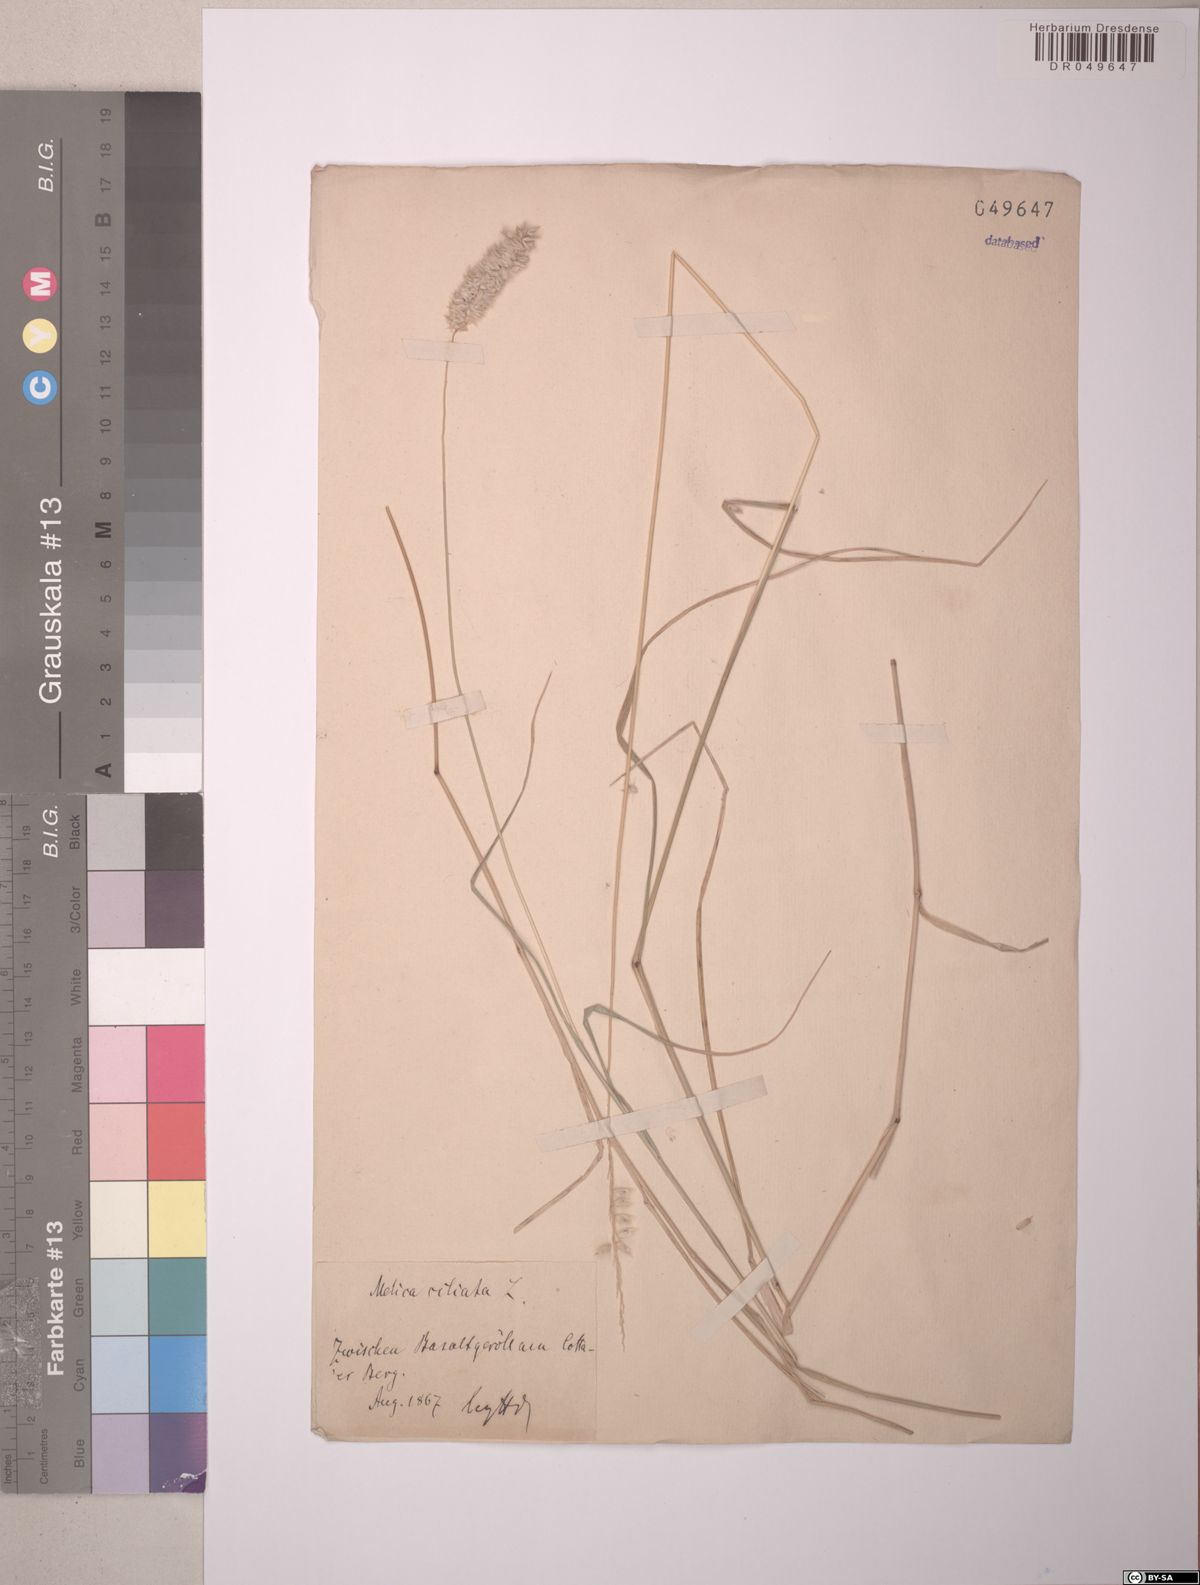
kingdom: Plantae
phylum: Tracheophyta
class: Liliopsida
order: Poales
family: Poaceae
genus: Melica
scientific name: Melica transsilvanica
